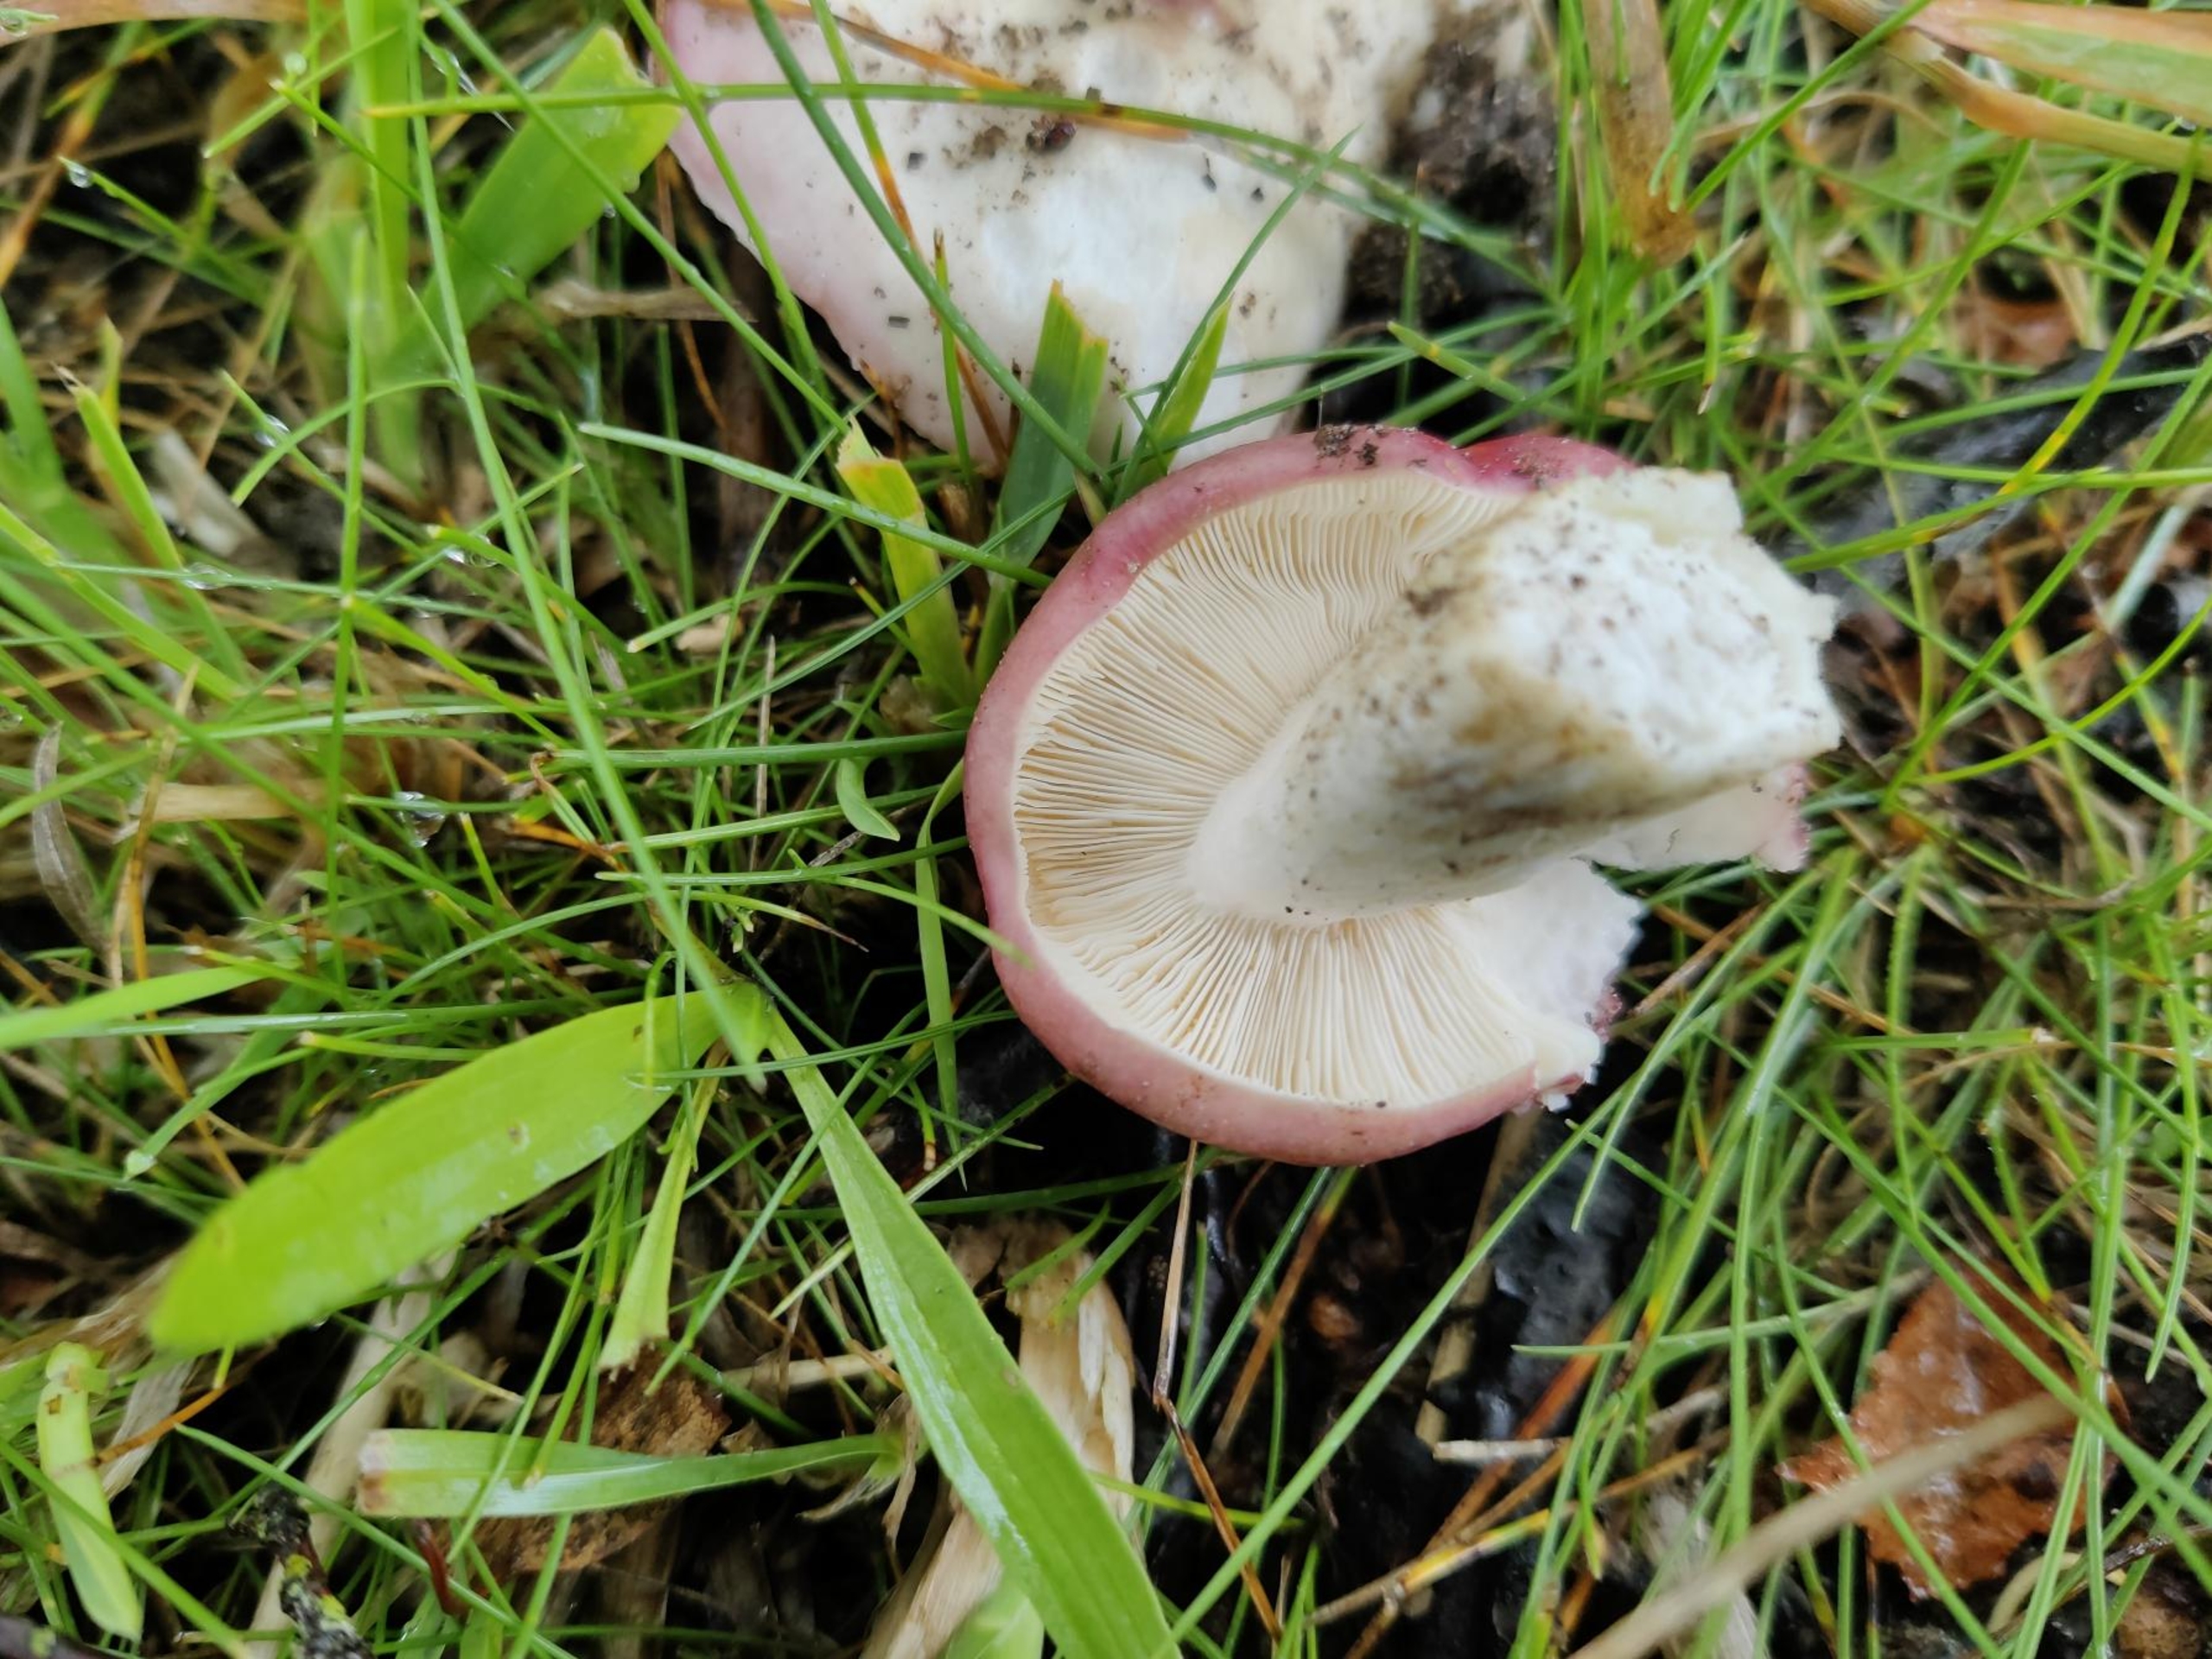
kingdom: Fungi
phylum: Basidiomycota
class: Agaricomycetes
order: Russulales
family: Russulaceae
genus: Russula
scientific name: Russula depallens
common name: Falmende skørhat
